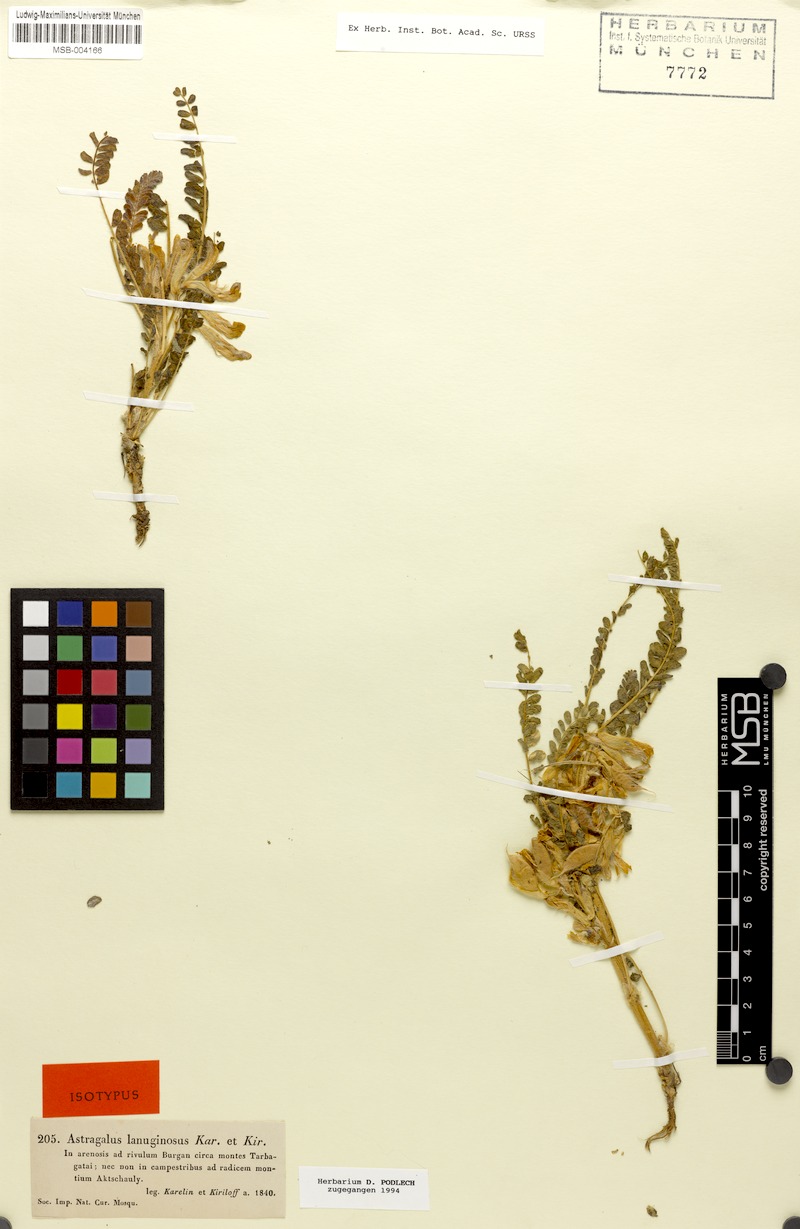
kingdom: Plantae
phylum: Tracheophyta
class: Magnoliopsida
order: Fabales
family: Fabaceae
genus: Astragalus
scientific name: Astragalus larvatus
